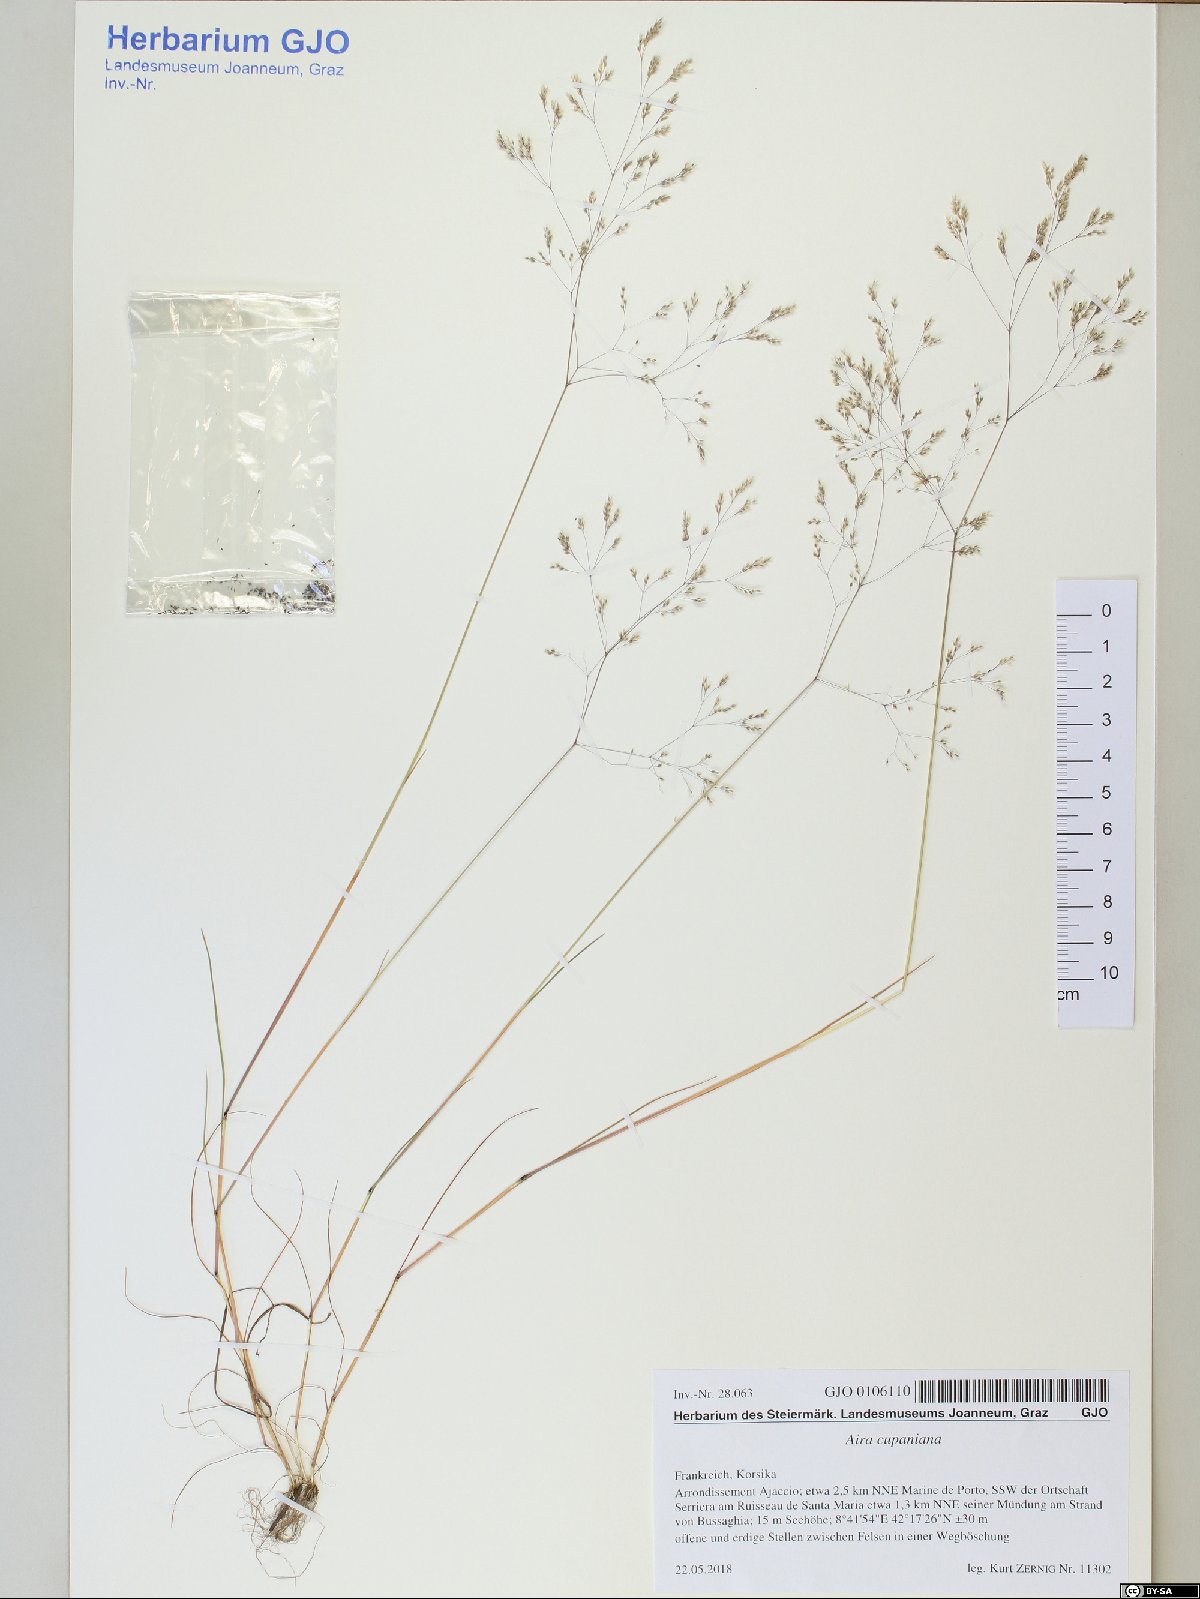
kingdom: Plantae
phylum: Tracheophyta
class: Liliopsida
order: Poales
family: Poaceae
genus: Aira
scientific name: Aira cupaniana
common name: Silver hairgrass
